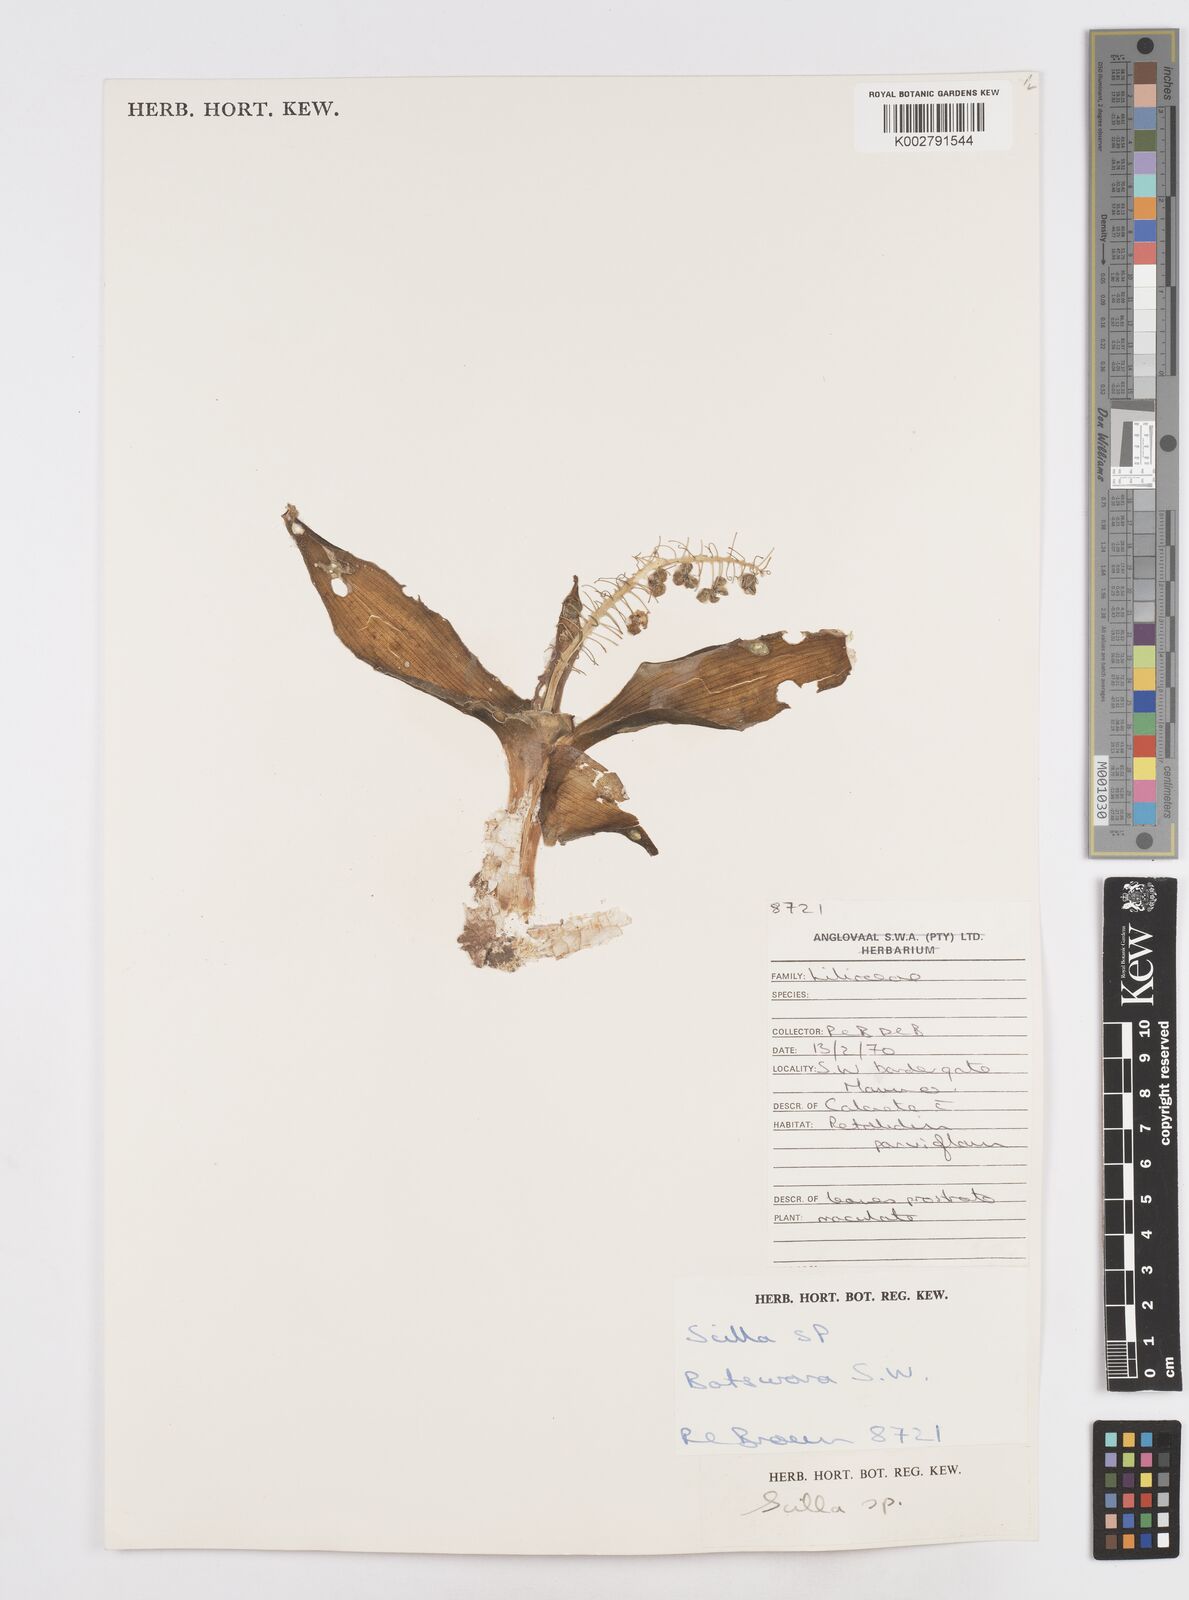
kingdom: Plantae
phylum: Tracheophyta
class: Liliopsida
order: Asparagales
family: Asparagaceae
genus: Scilla
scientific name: Scilla
